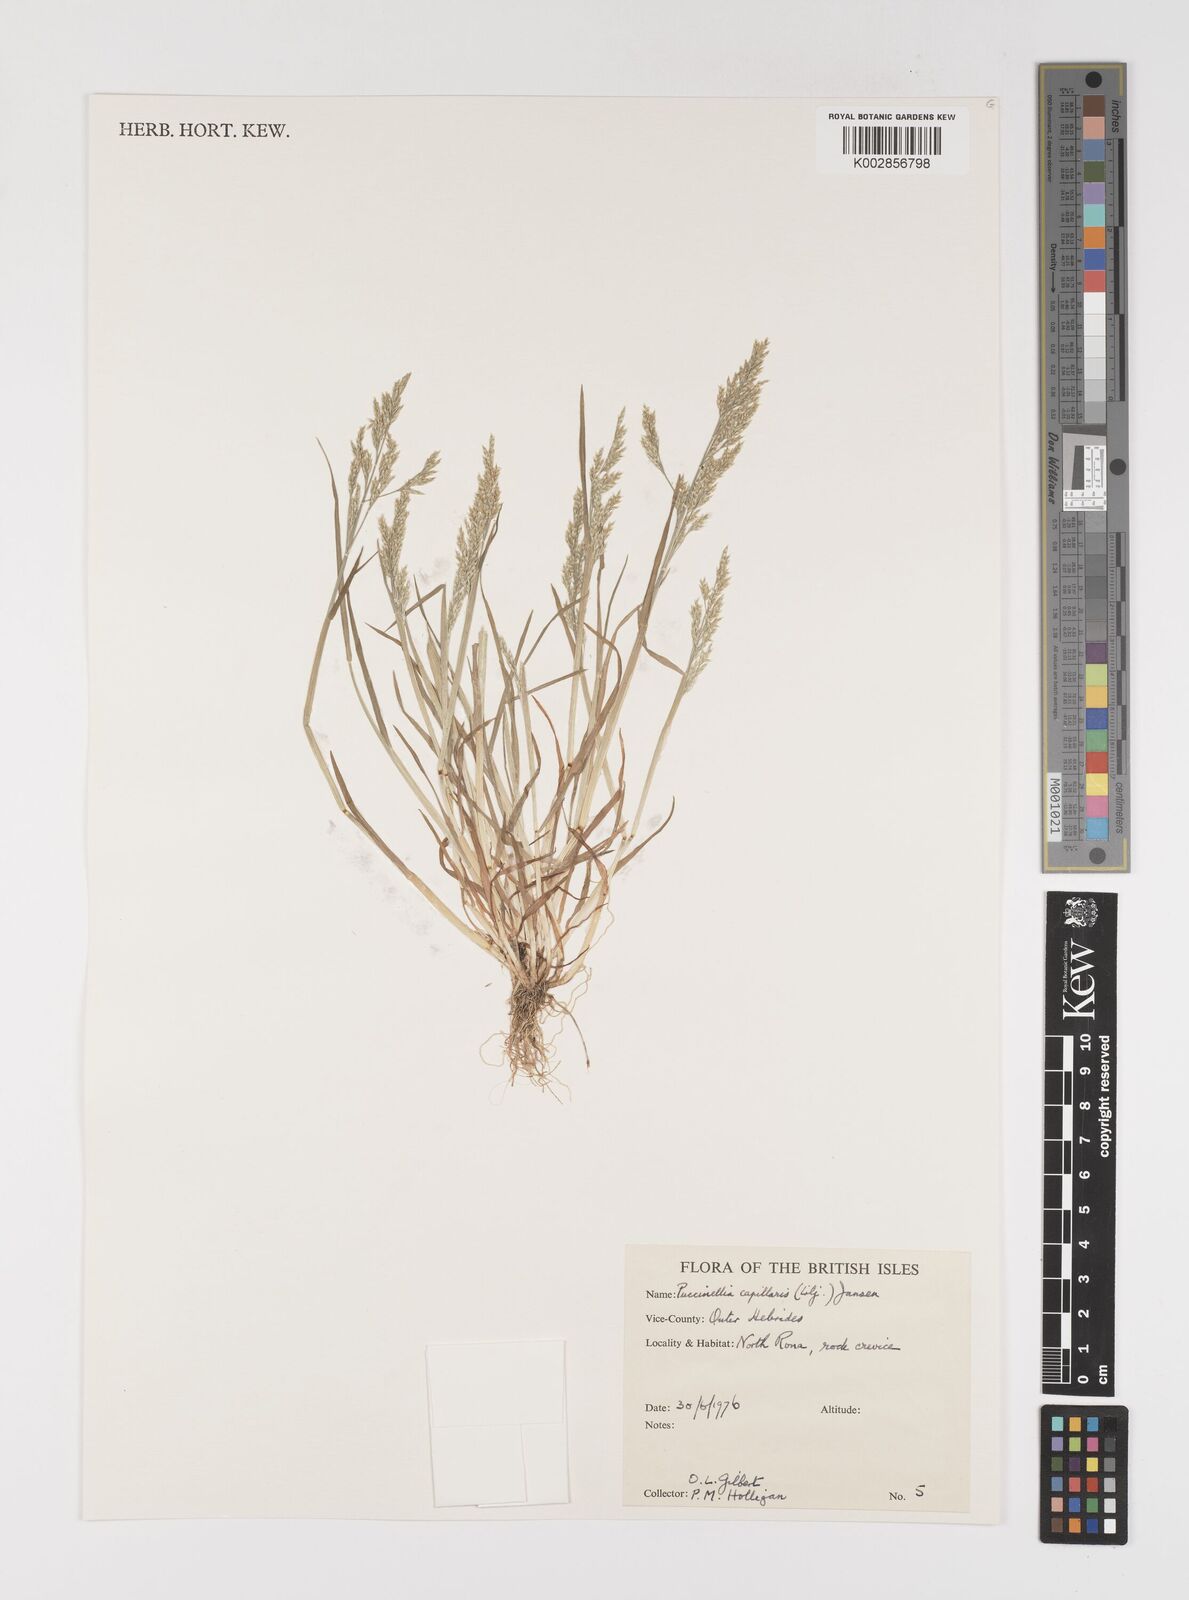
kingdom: Plantae
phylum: Tracheophyta
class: Liliopsida
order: Poales
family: Poaceae
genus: Puccinellia
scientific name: Puccinellia distans
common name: Weeping alkaligrass
